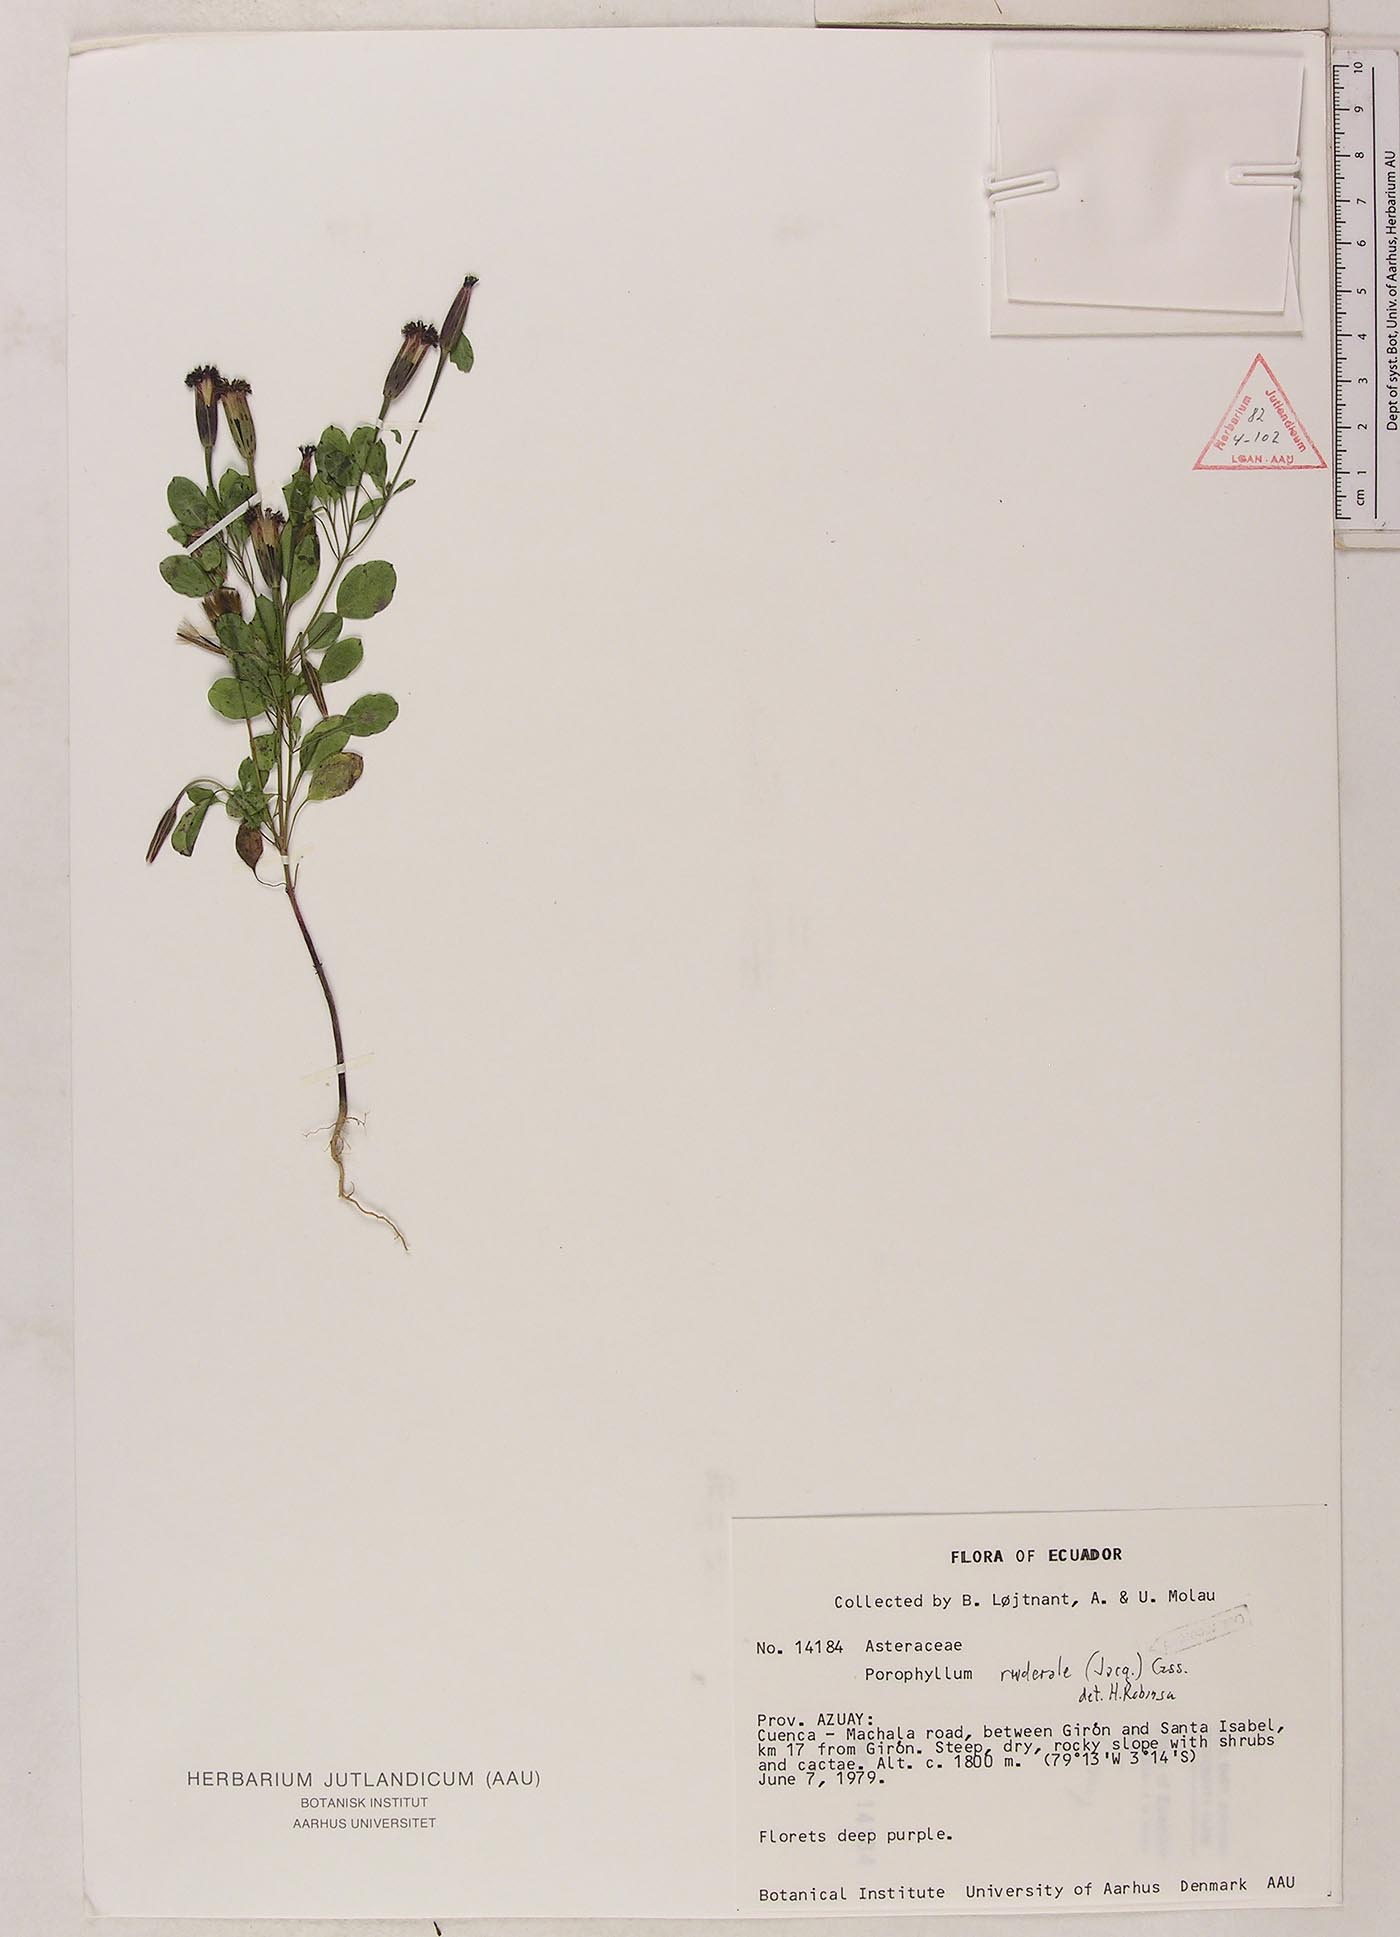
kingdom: Plantae
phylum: Tracheophyta
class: Magnoliopsida
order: Asterales
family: Asteraceae
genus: Porophyllum
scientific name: Porophyllum ruderale
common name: Yerba porosa
